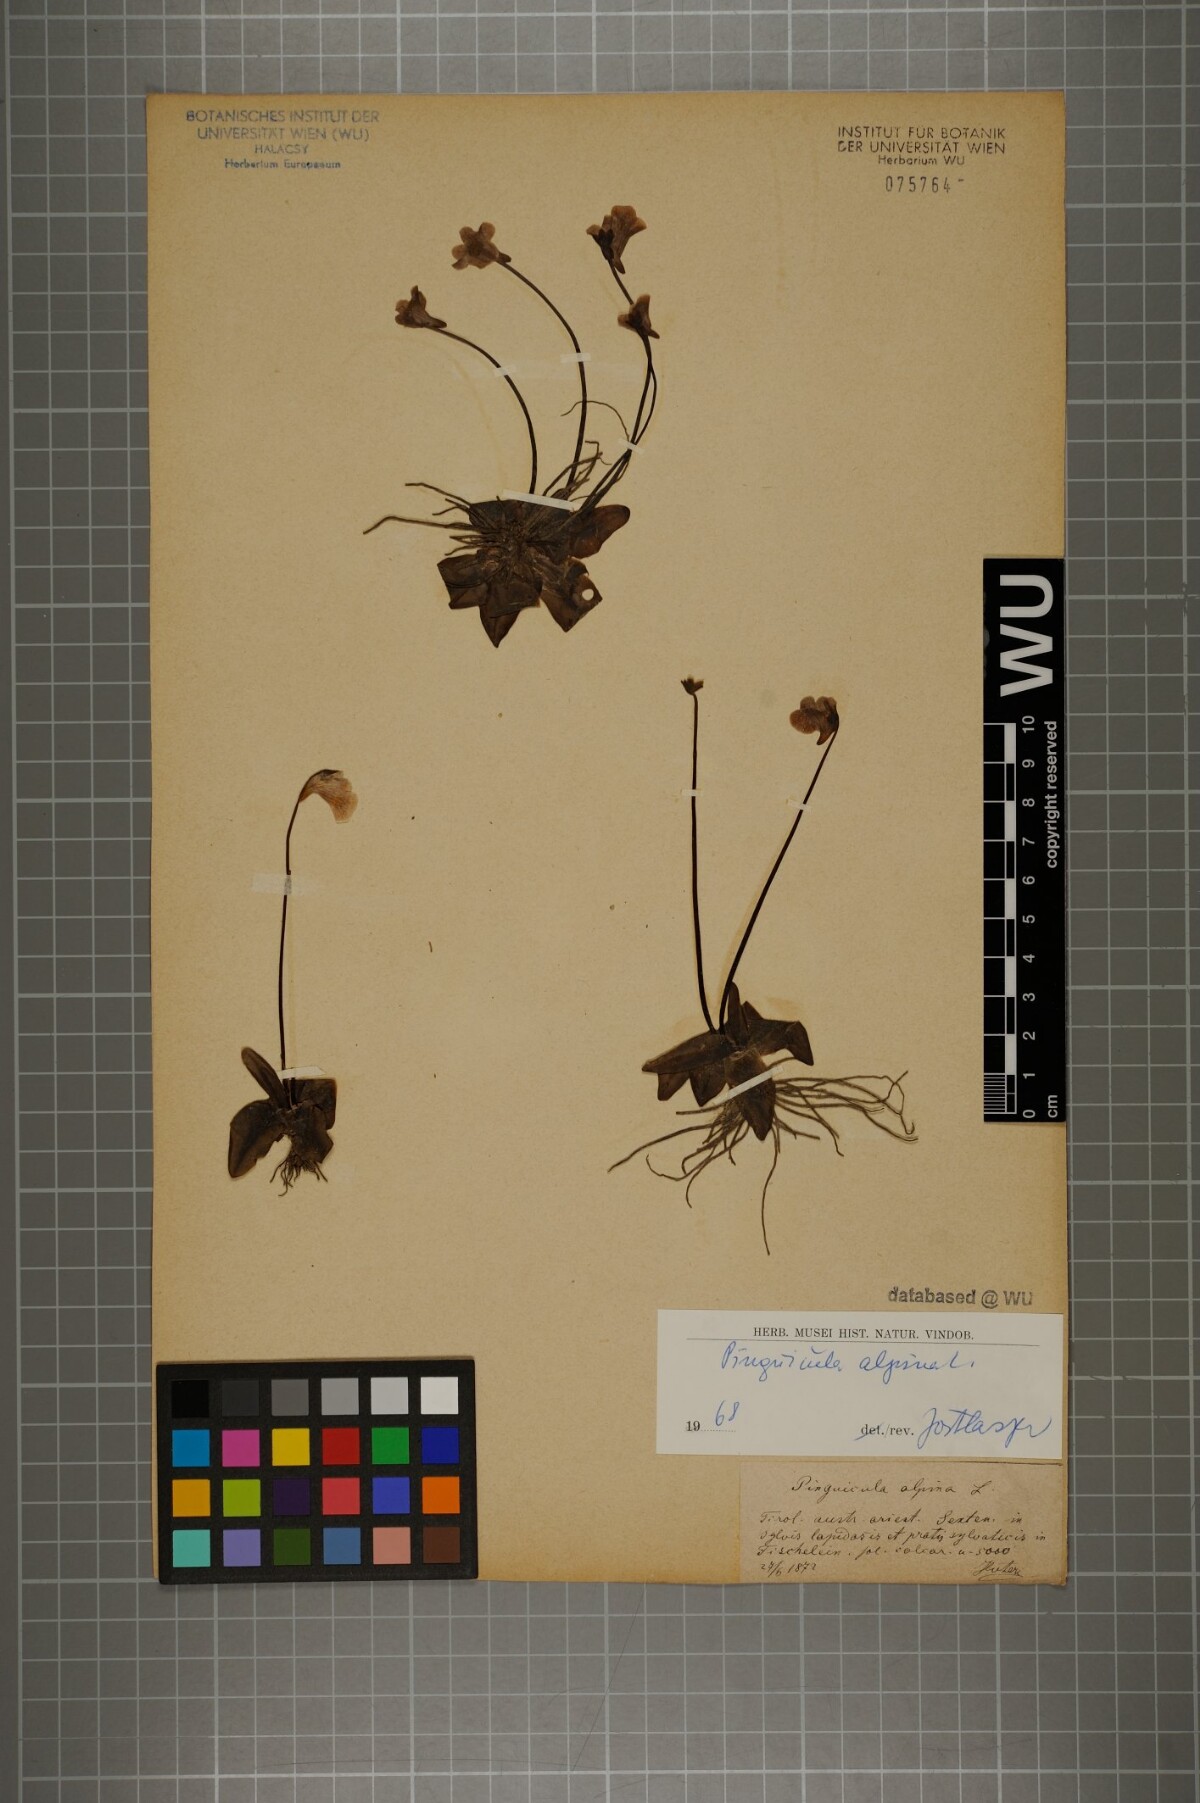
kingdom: Plantae
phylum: Tracheophyta
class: Magnoliopsida
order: Lamiales
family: Lentibulariaceae
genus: Pinguicula
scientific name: Pinguicula alpina
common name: Alpine butterwort
